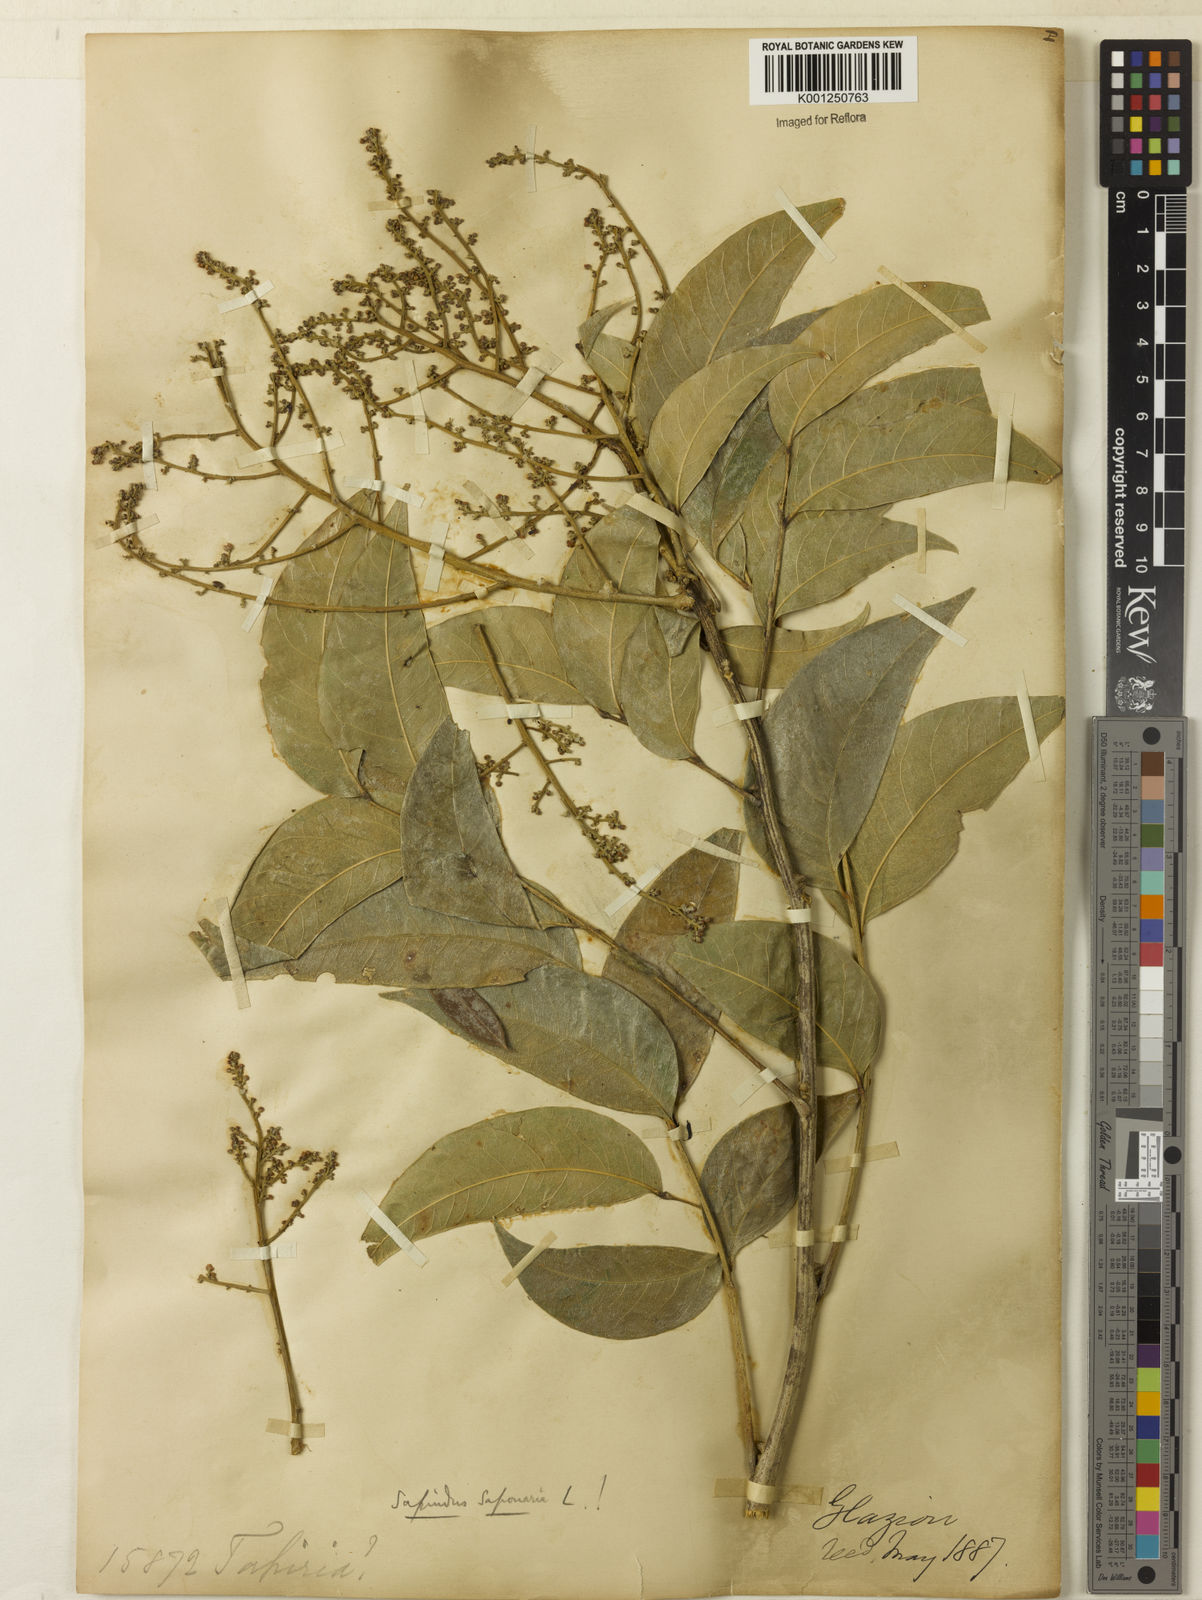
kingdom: Plantae
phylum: Tracheophyta
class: Magnoliopsida
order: Sapindales
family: Sapindaceae
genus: Sapindus
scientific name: Sapindus
